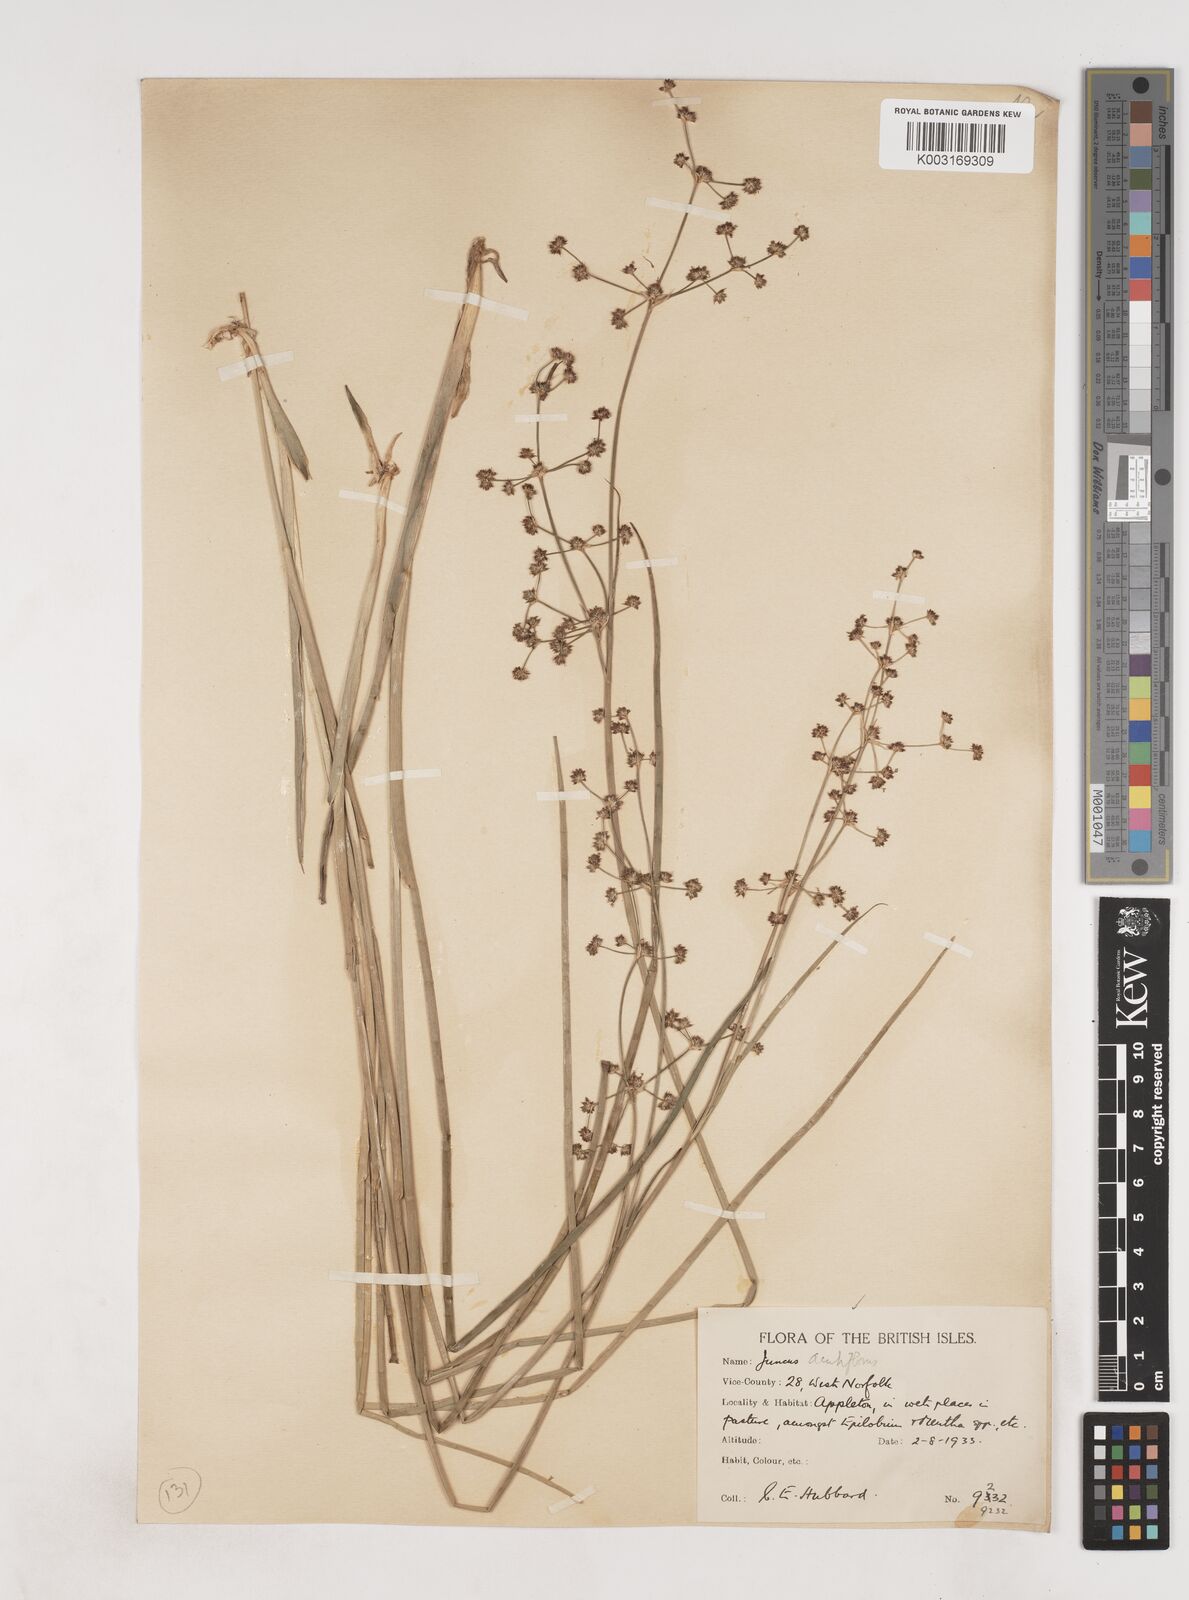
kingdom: Plantae
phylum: Tracheophyta
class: Liliopsida
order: Poales
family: Juncaceae
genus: Juncus
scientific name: Juncus acutiflorus
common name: Sharp-flowered rush
